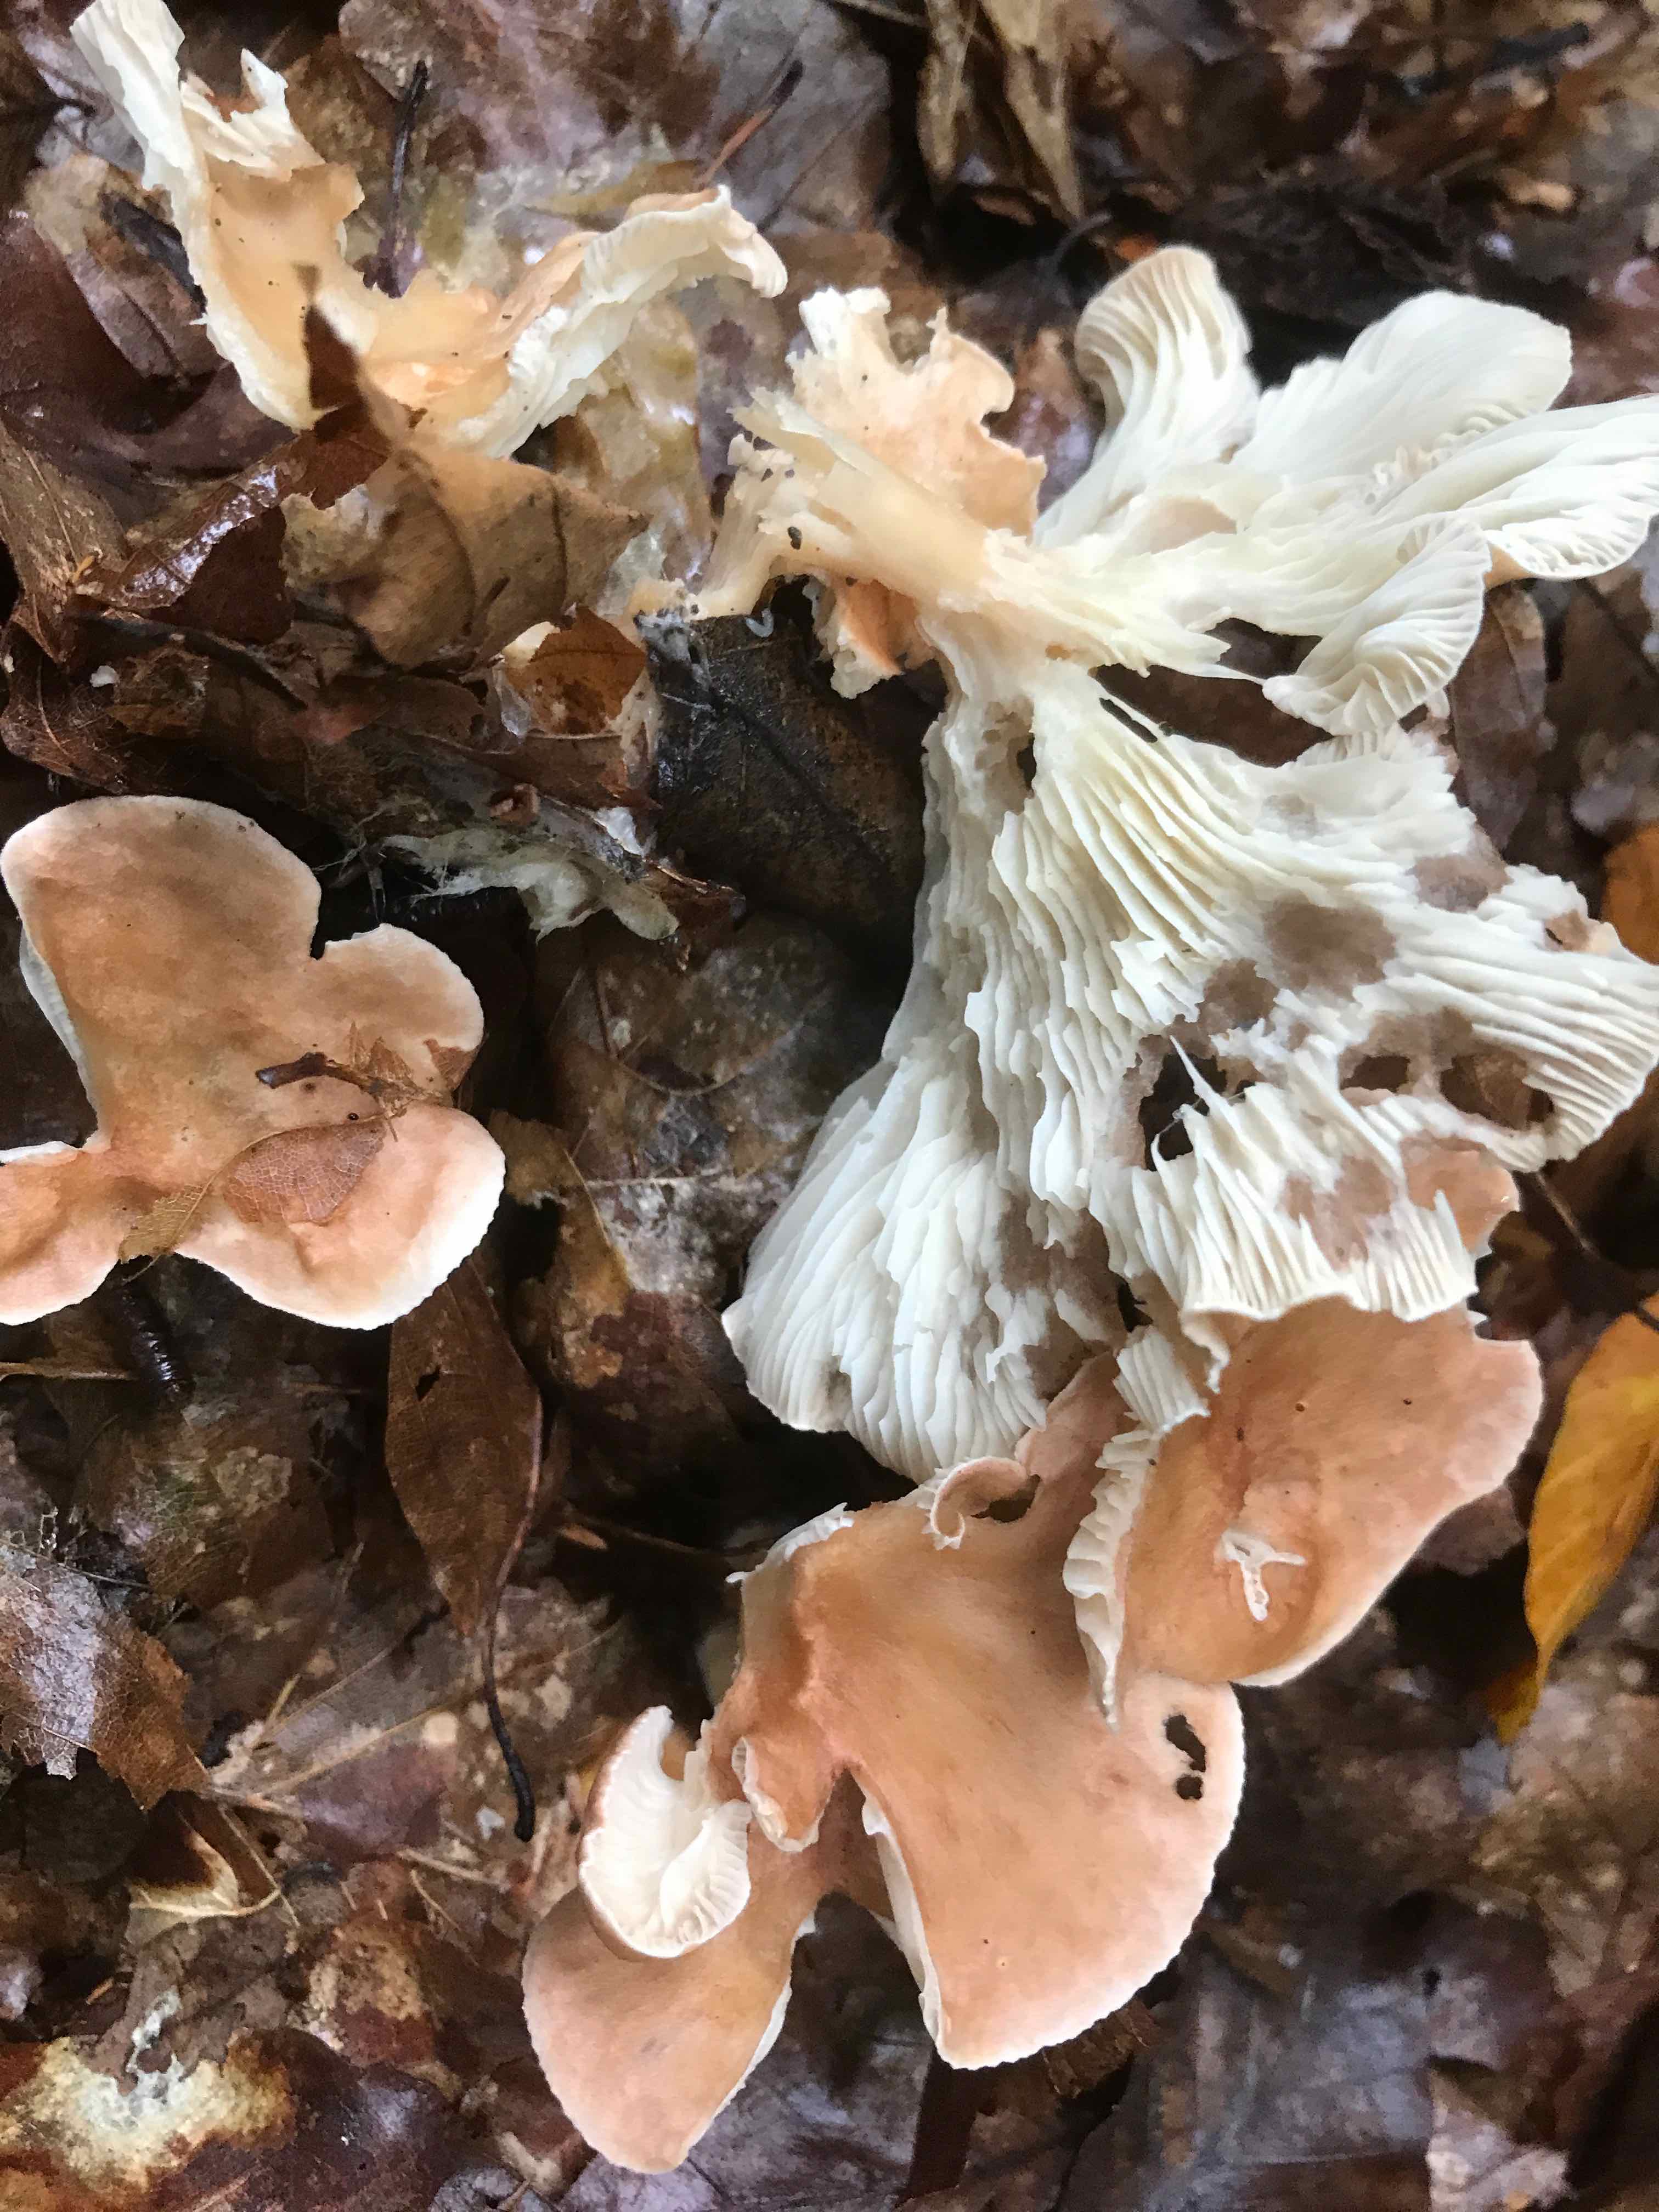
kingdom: Fungi
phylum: Basidiomycota
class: Agaricomycetes
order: Agaricales
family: Tricholomataceae
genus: Infundibulicybe
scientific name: Infundibulicybe gibba
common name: almindelig tragthat
